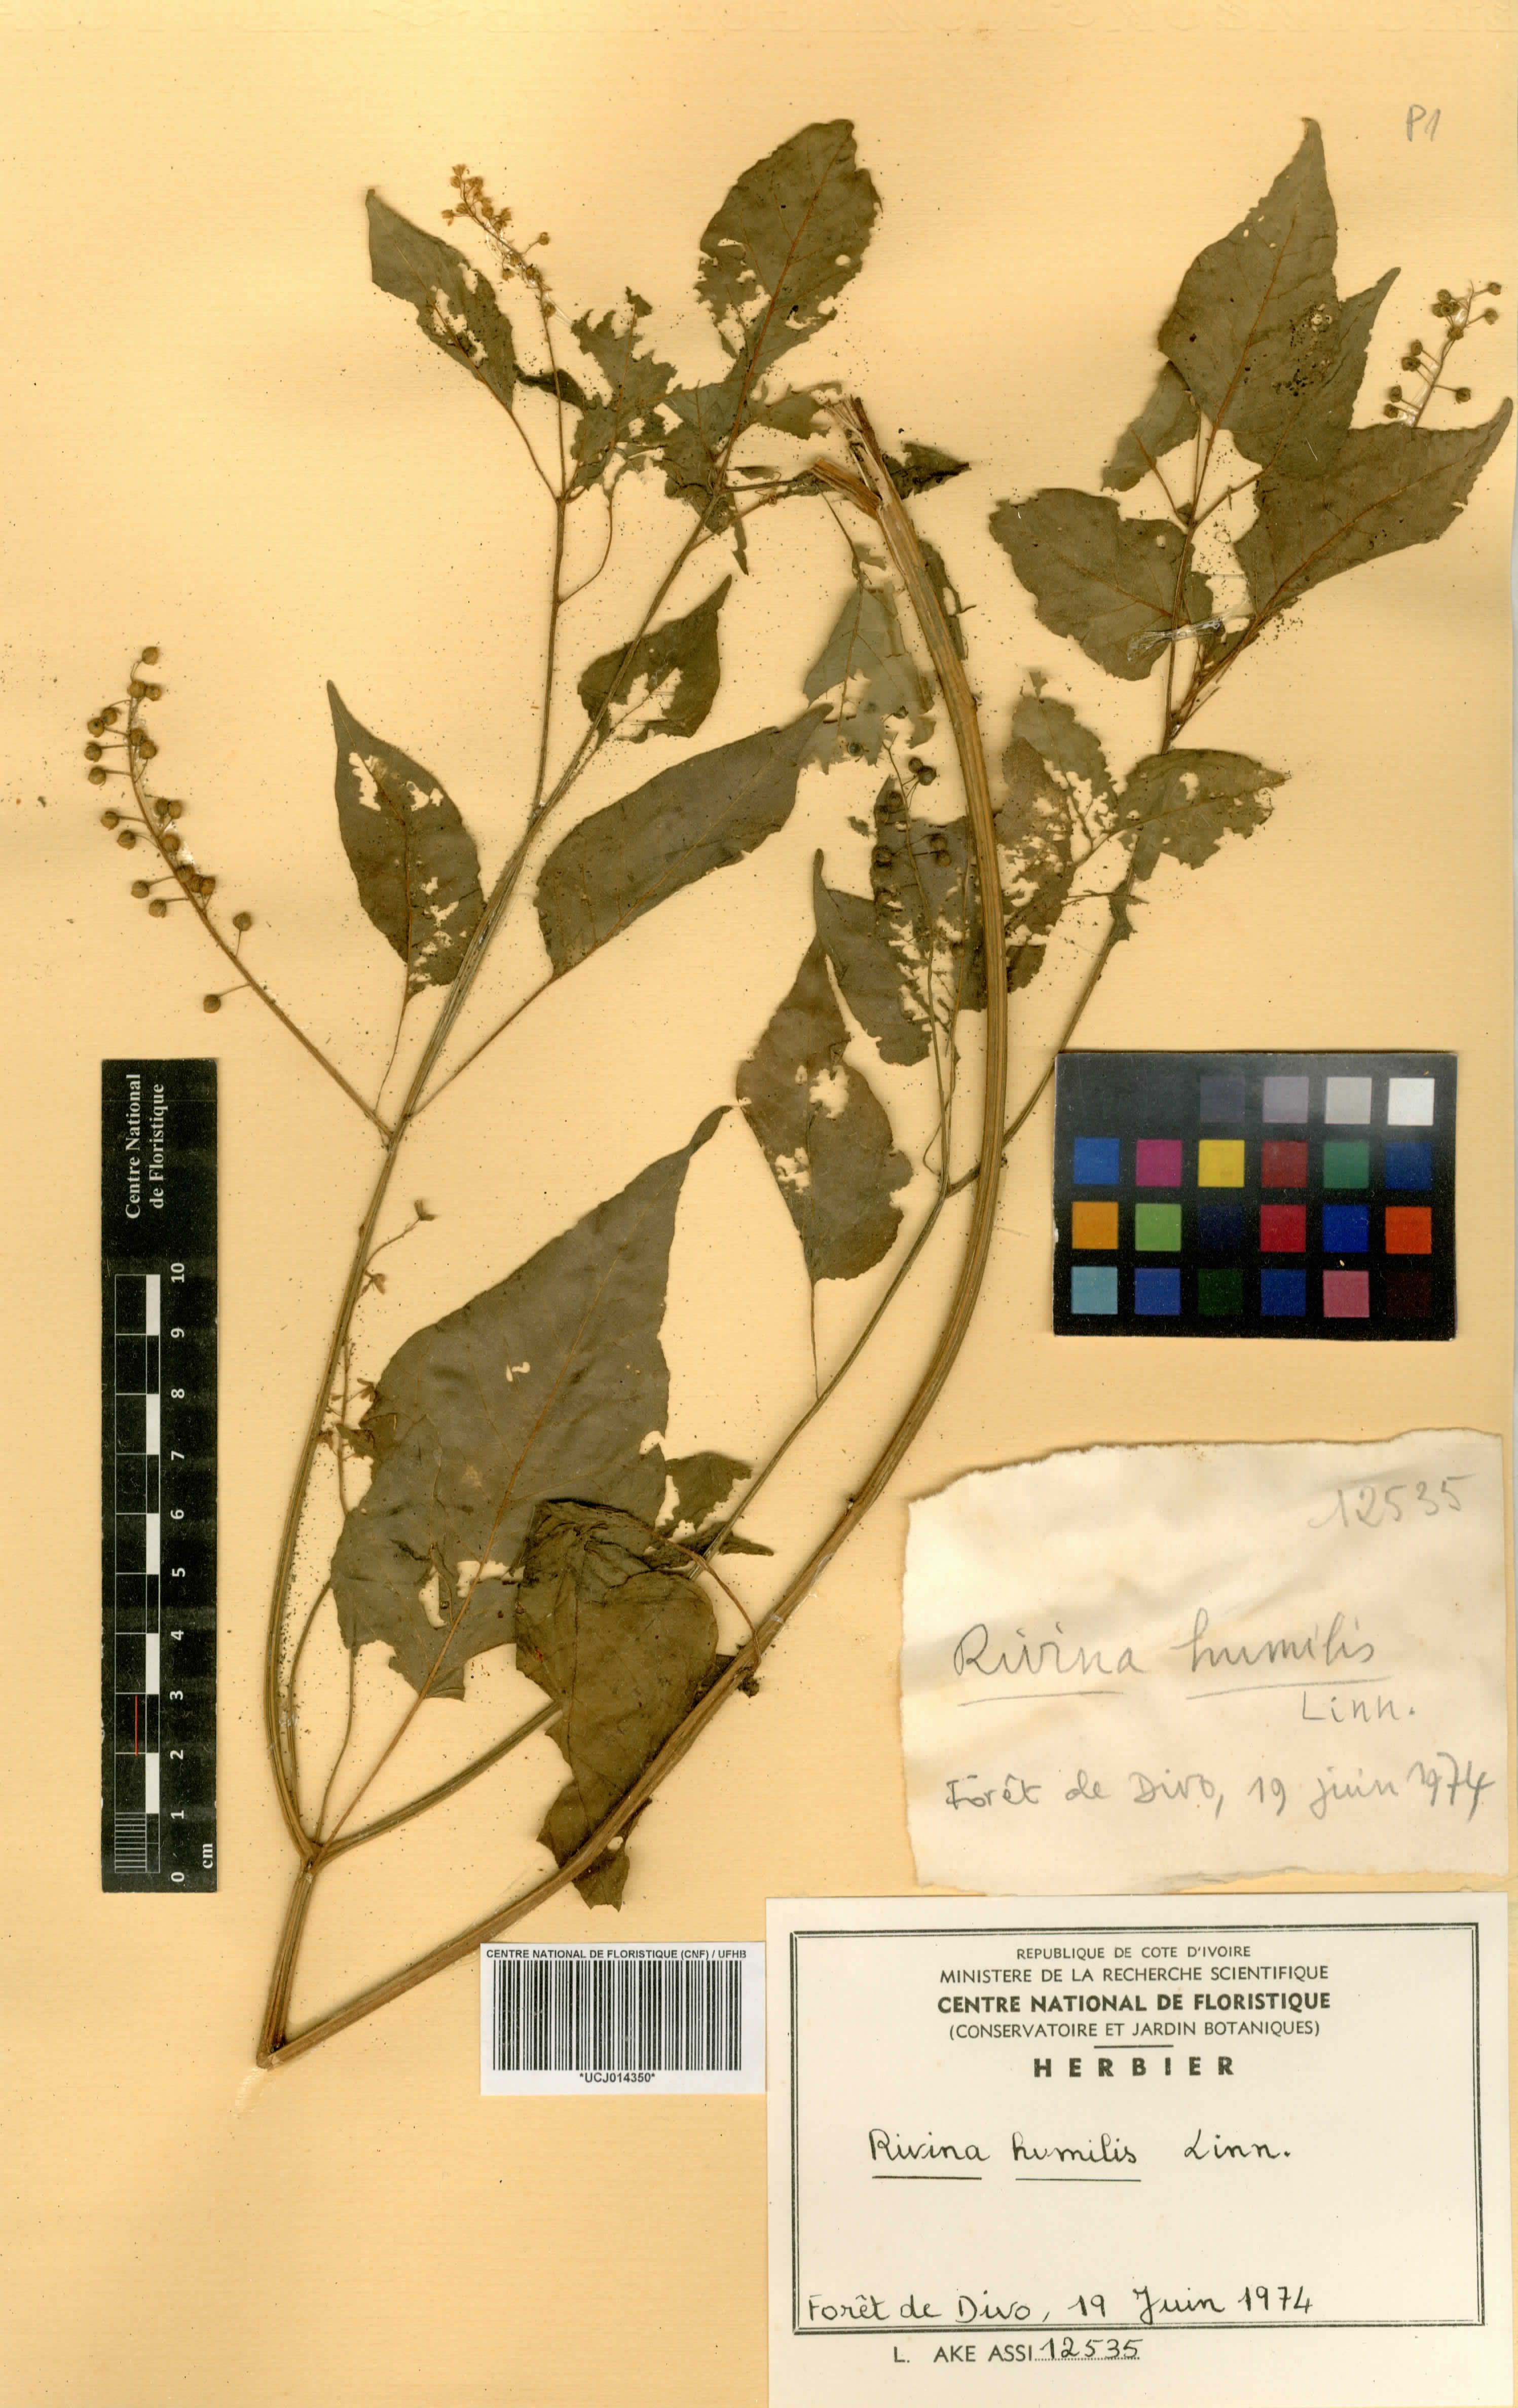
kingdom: Plantae
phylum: Tracheophyta
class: Magnoliopsida
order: Caryophyllales
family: Phytolaccaceae
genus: Rivina
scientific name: Rivina humilis
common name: Rougeplant
